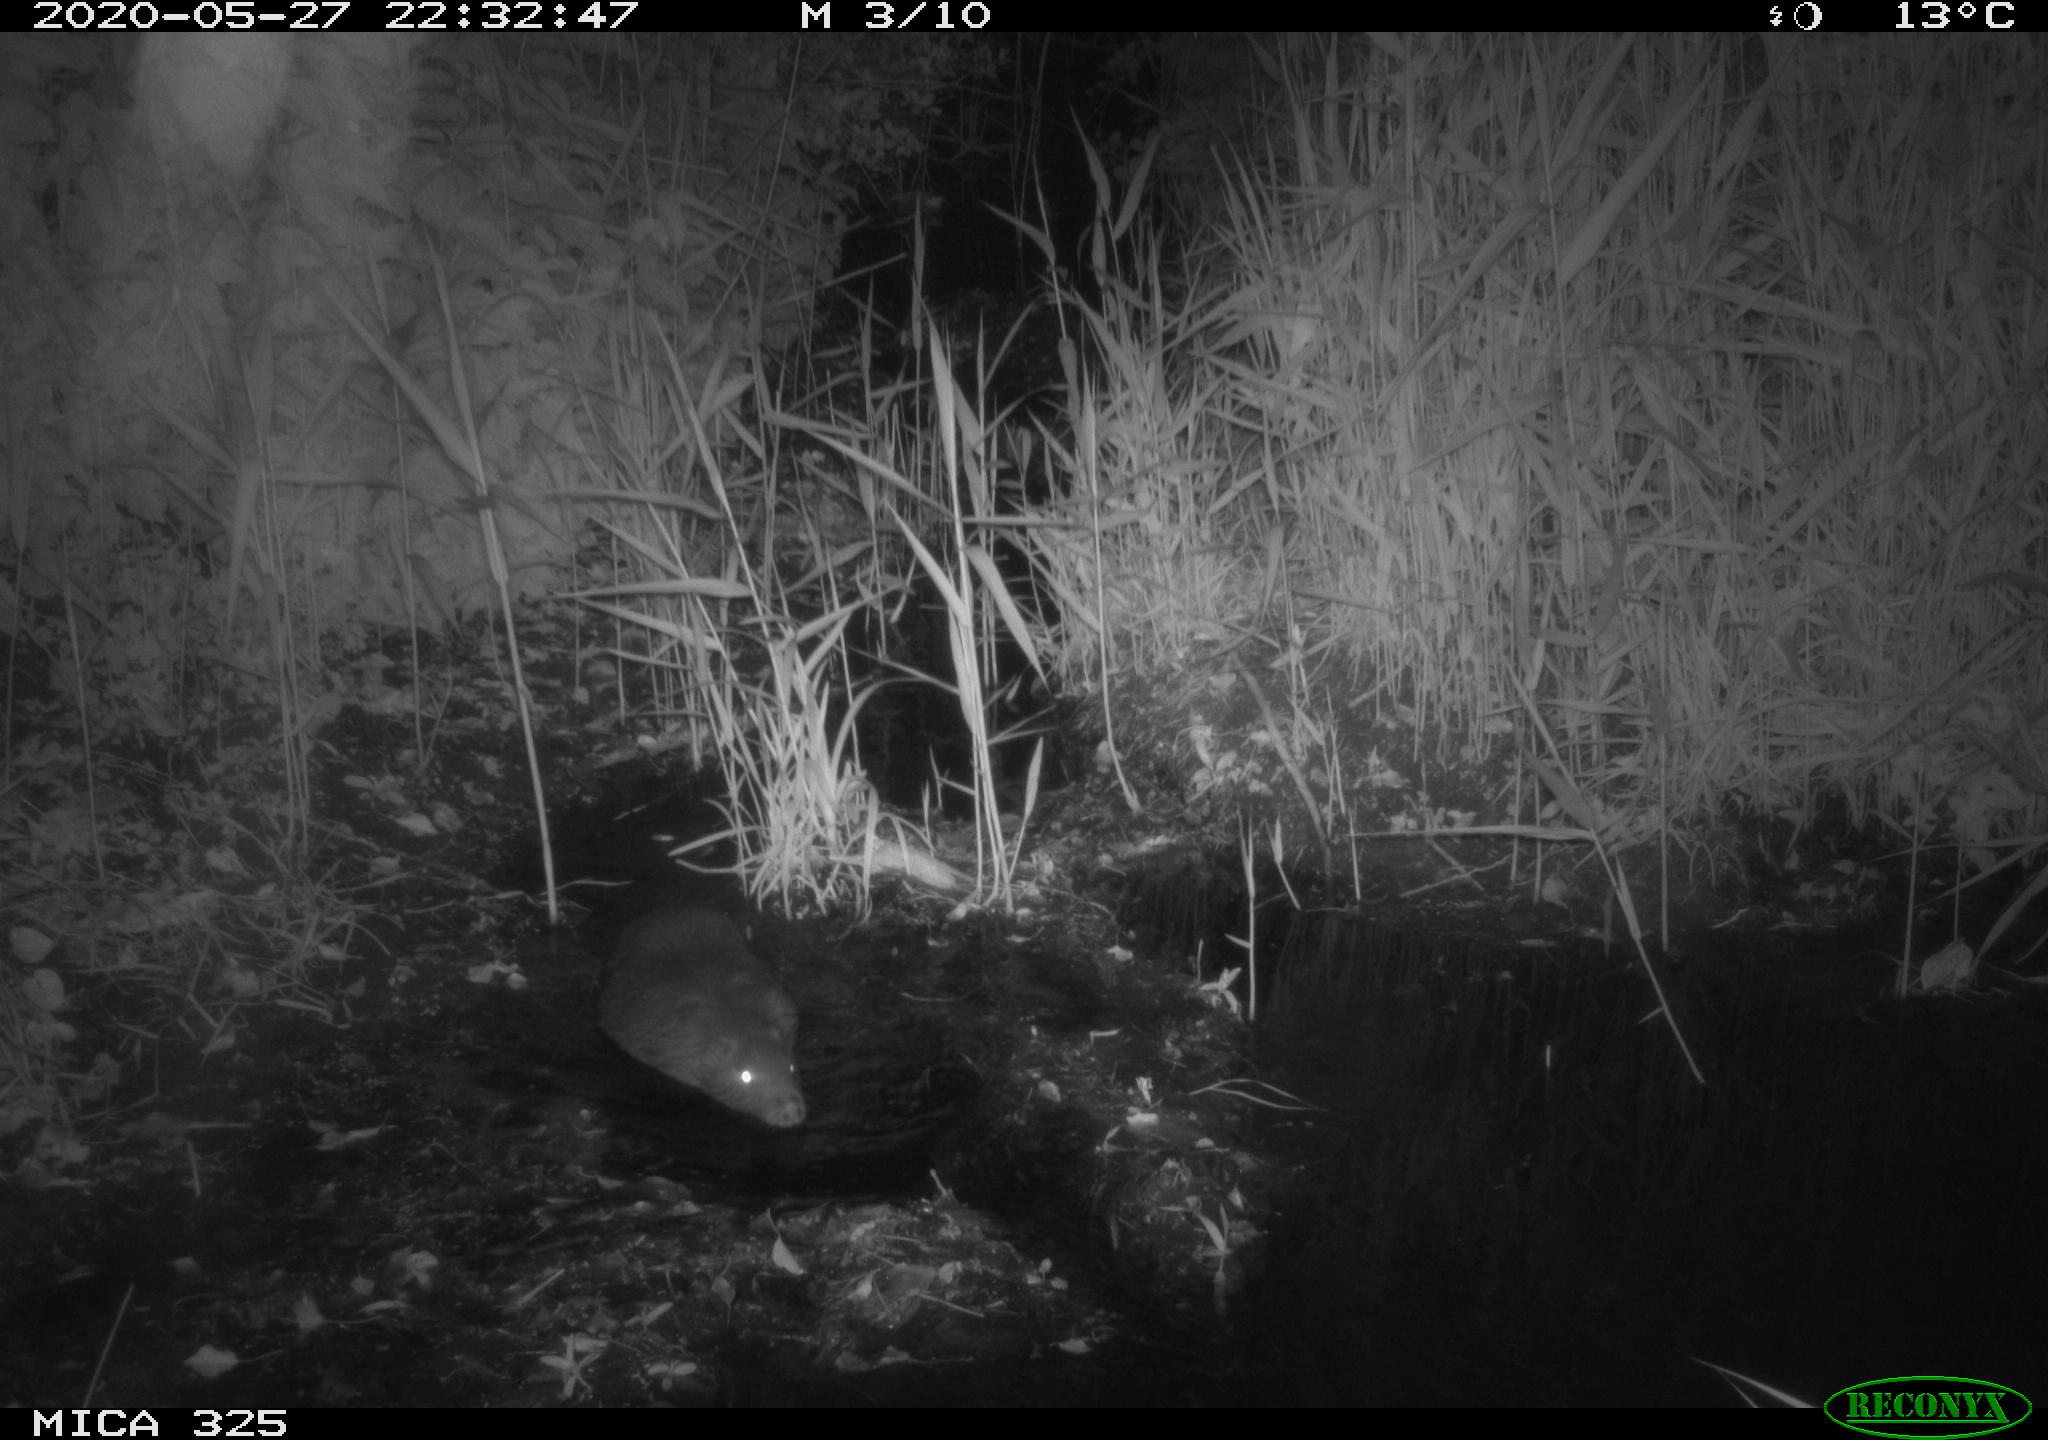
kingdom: Animalia
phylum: Chordata
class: Mammalia
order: Rodentia
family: Myocastoridae
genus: Myocastor
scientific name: Myocastor coypus
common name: Coypu
